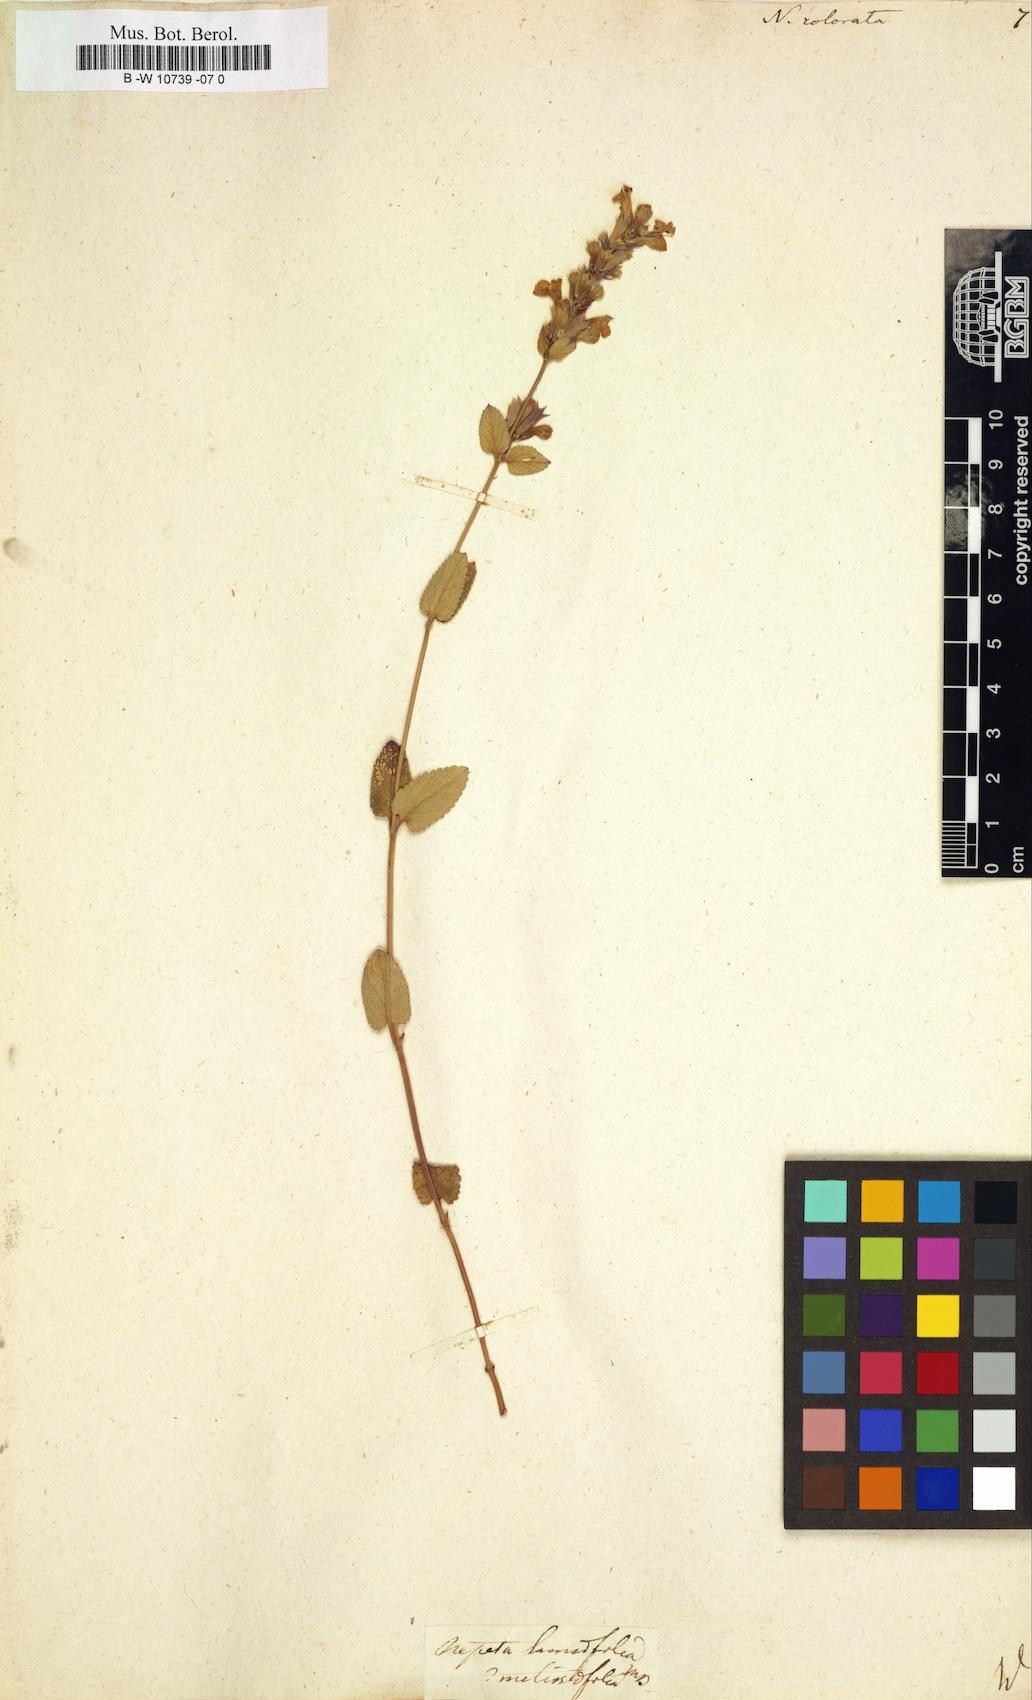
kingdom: Plantae
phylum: Tracheophyta
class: Magnoliopsida
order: Lamiales
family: Lamiaceae
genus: Nepeta
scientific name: Nepeta grandiflora
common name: Caucasus catmint
